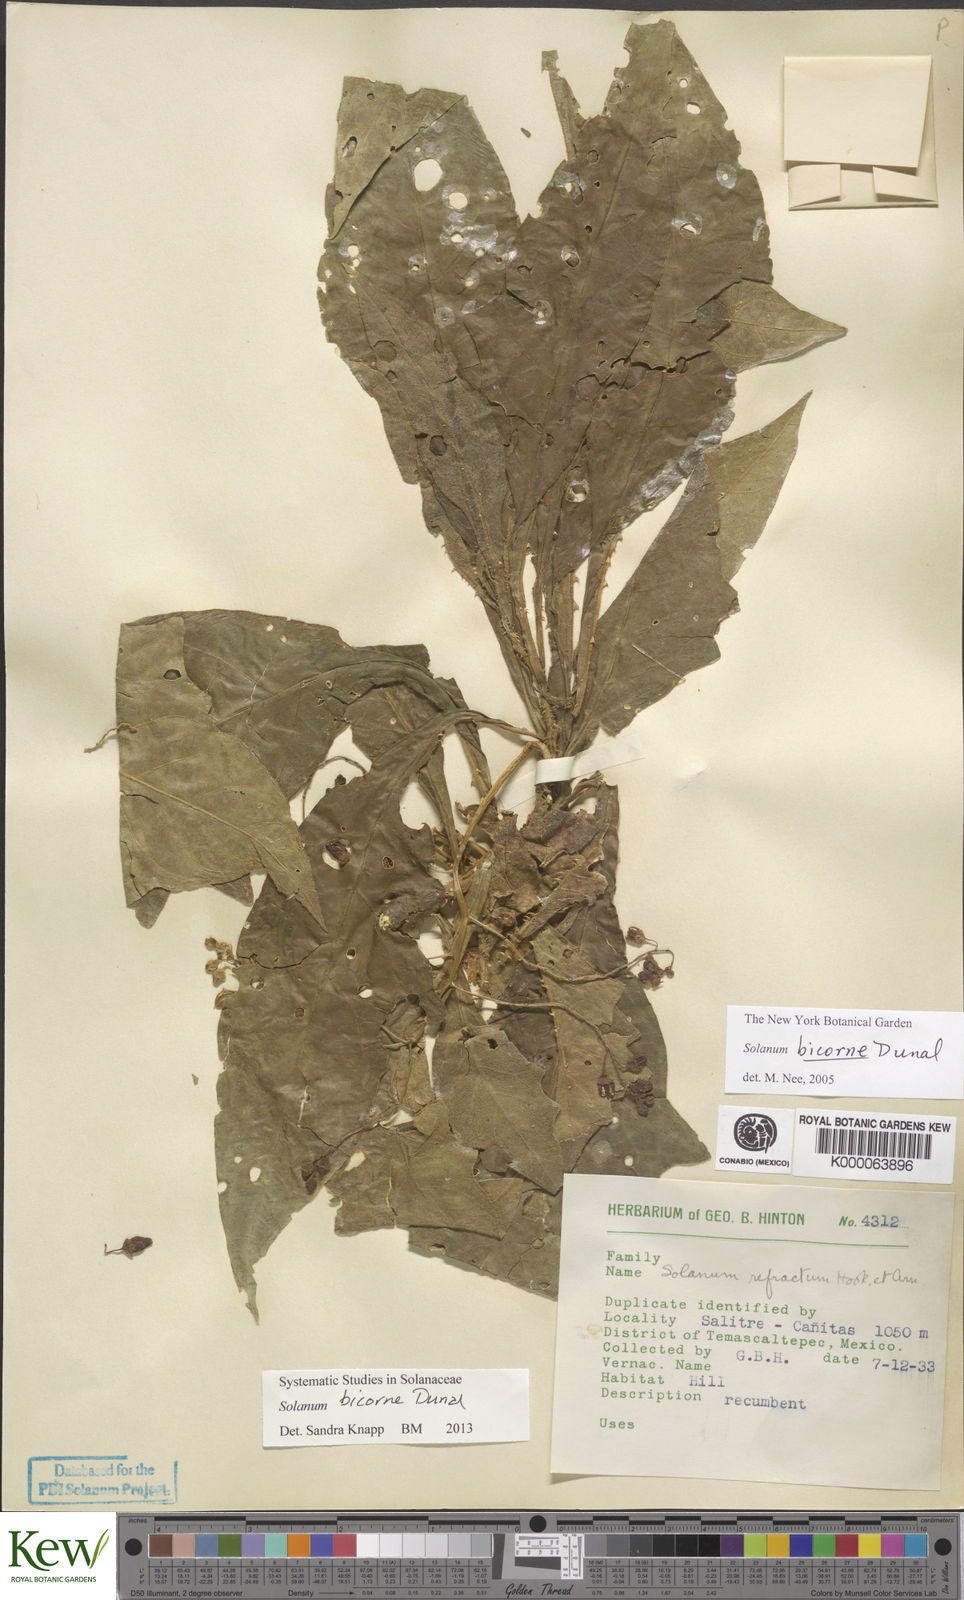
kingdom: Plantae
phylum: Tracheophyta
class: Magnoliopsida
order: Solanales
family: Solanaceae
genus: Solanum
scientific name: Solanum refractum
